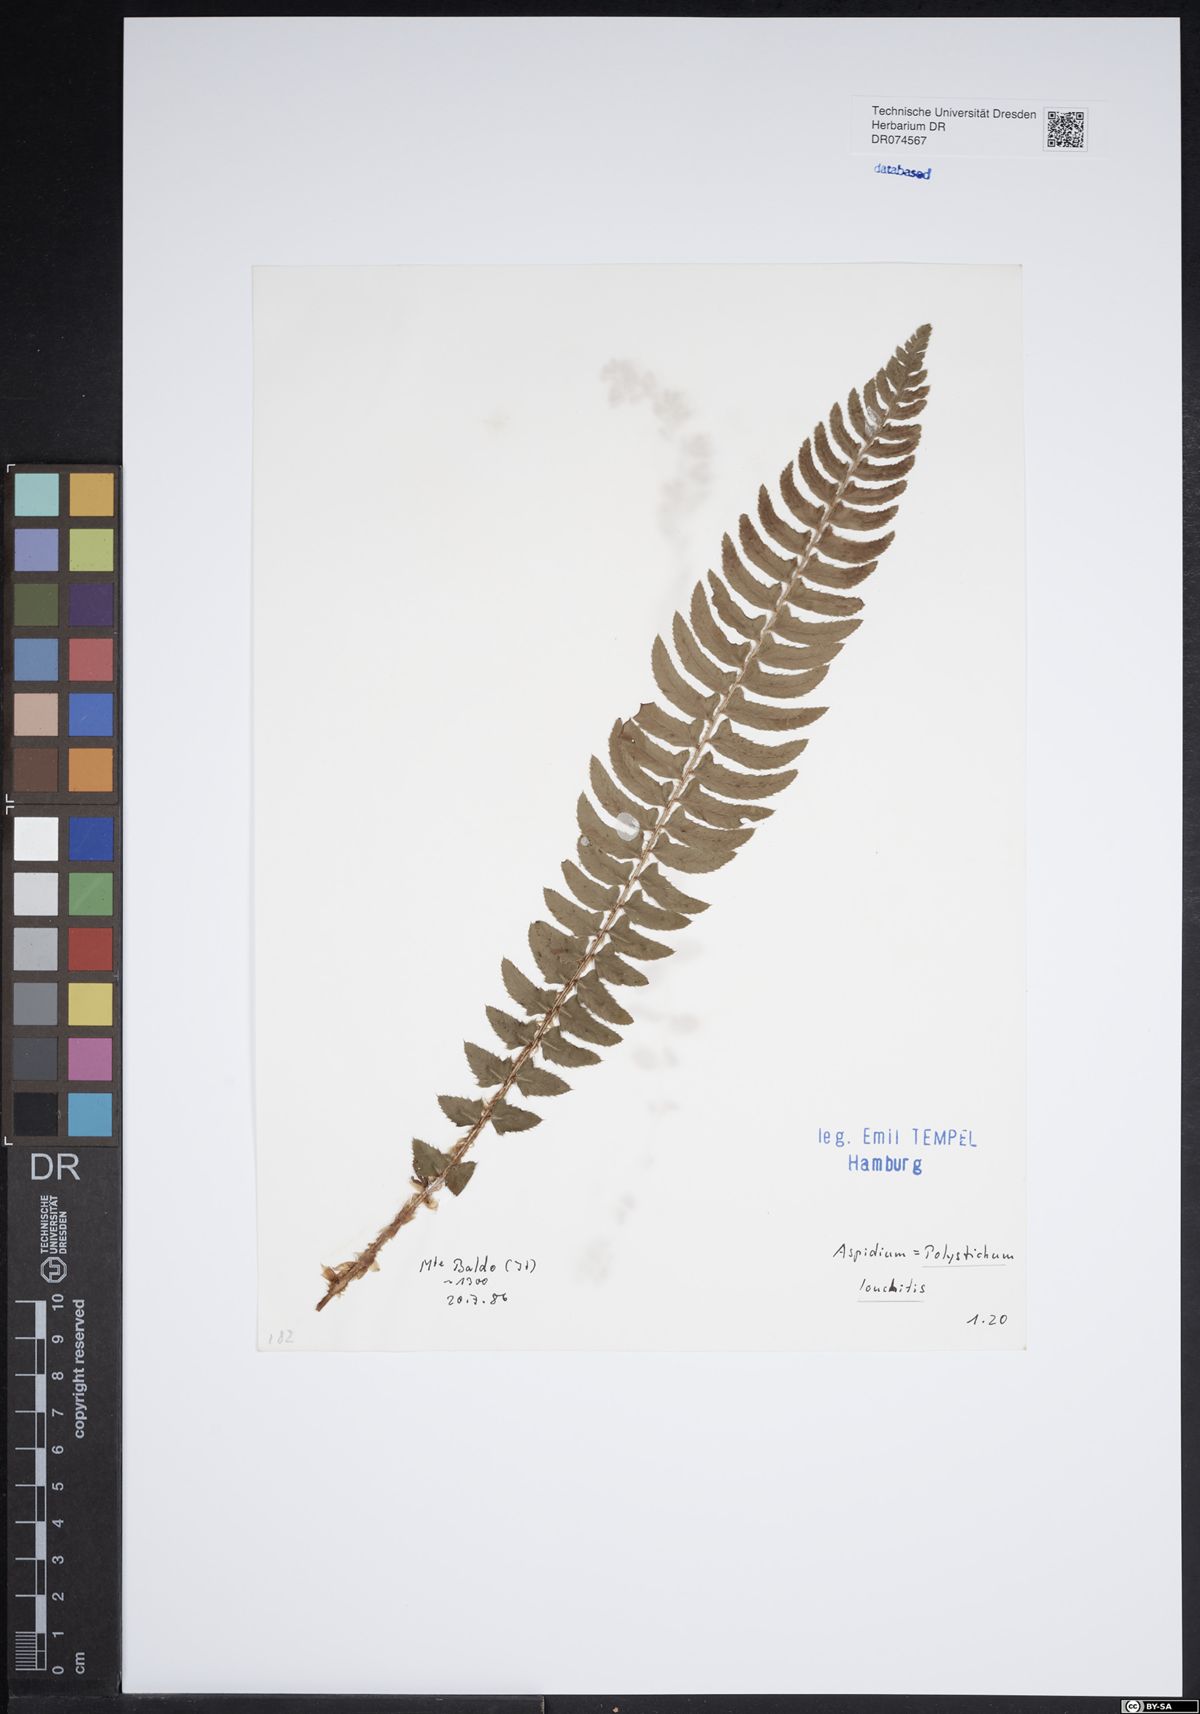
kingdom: Plantae
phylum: Tracheophyta
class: Polypodiopsida
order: Polypodiales
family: Dryopteridaceae
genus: Polystichum
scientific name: Polystichum lonchitis
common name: Holly fern
